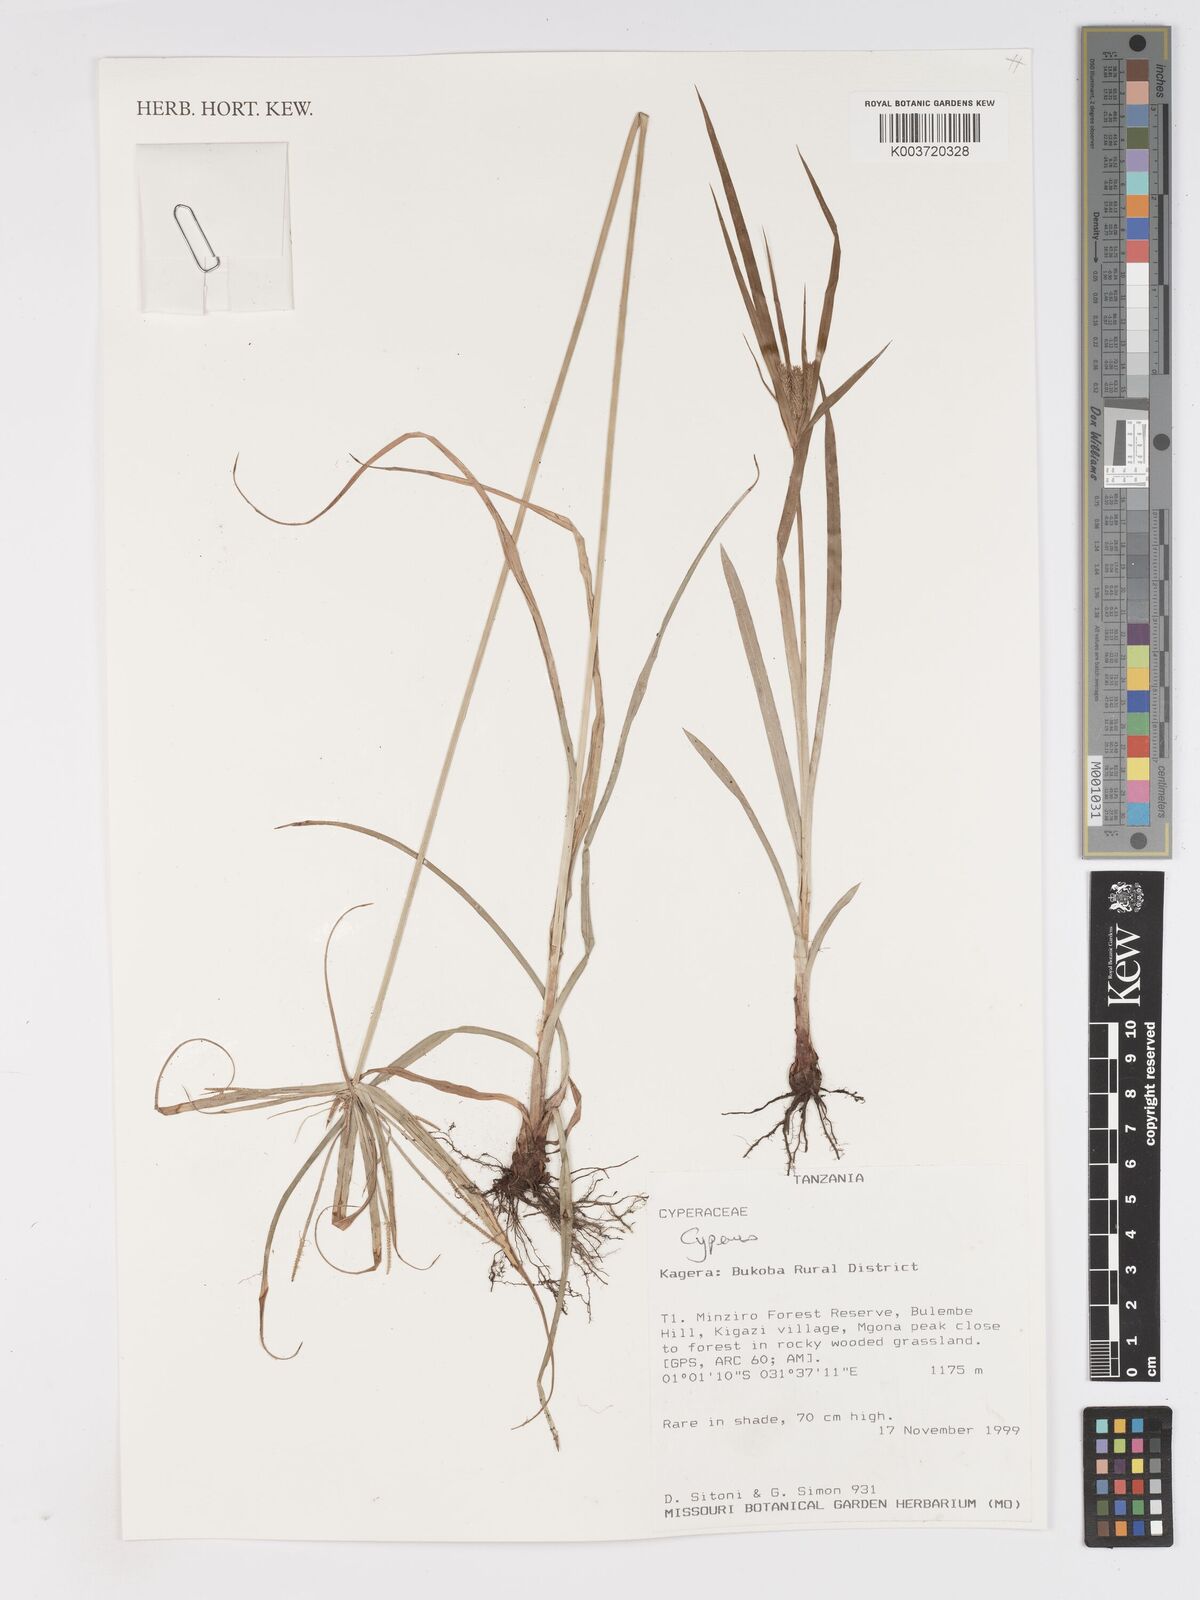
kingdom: Plantae
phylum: Tracheophyta
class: Liliopsida
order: Poales
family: Cyperaceae
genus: Cyperus
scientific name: Cyperus
